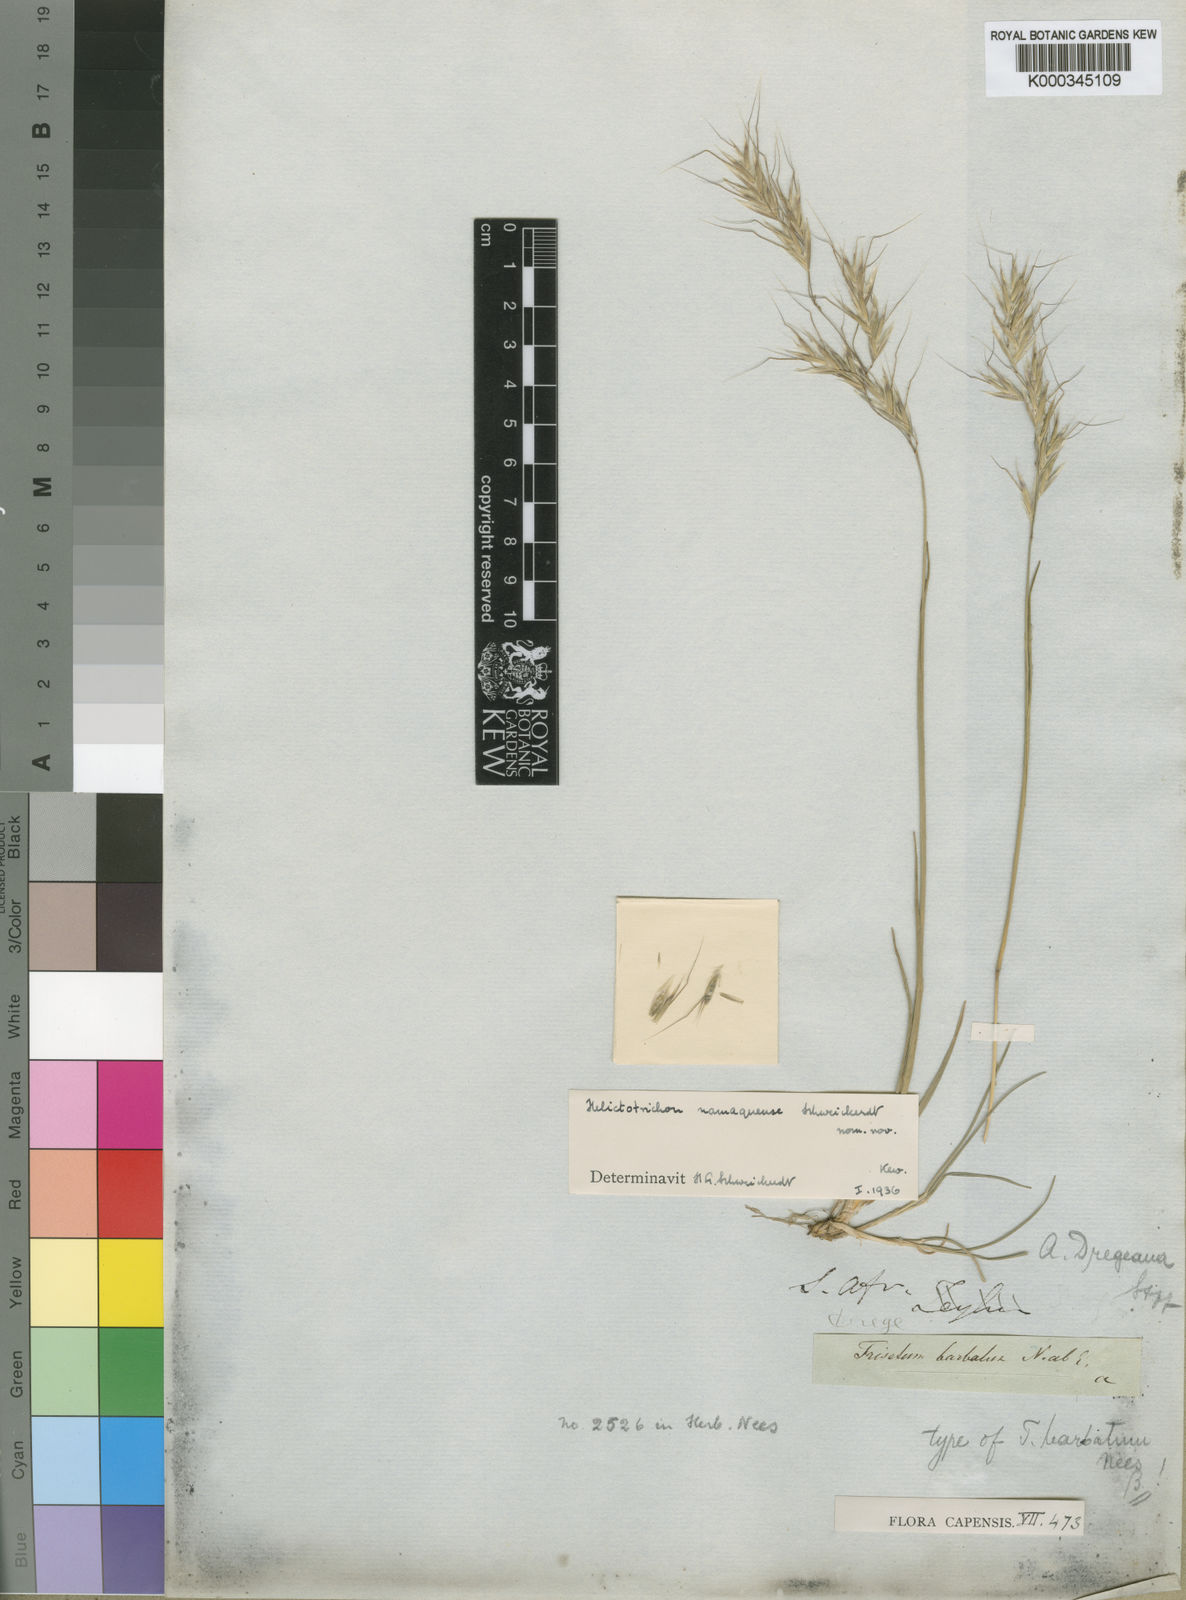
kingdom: Plantae
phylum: Tracheophyta
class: Liliopsida
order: Poales
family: Poaceae
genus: Trisetopsis
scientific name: Trisetopsis namaquensis
